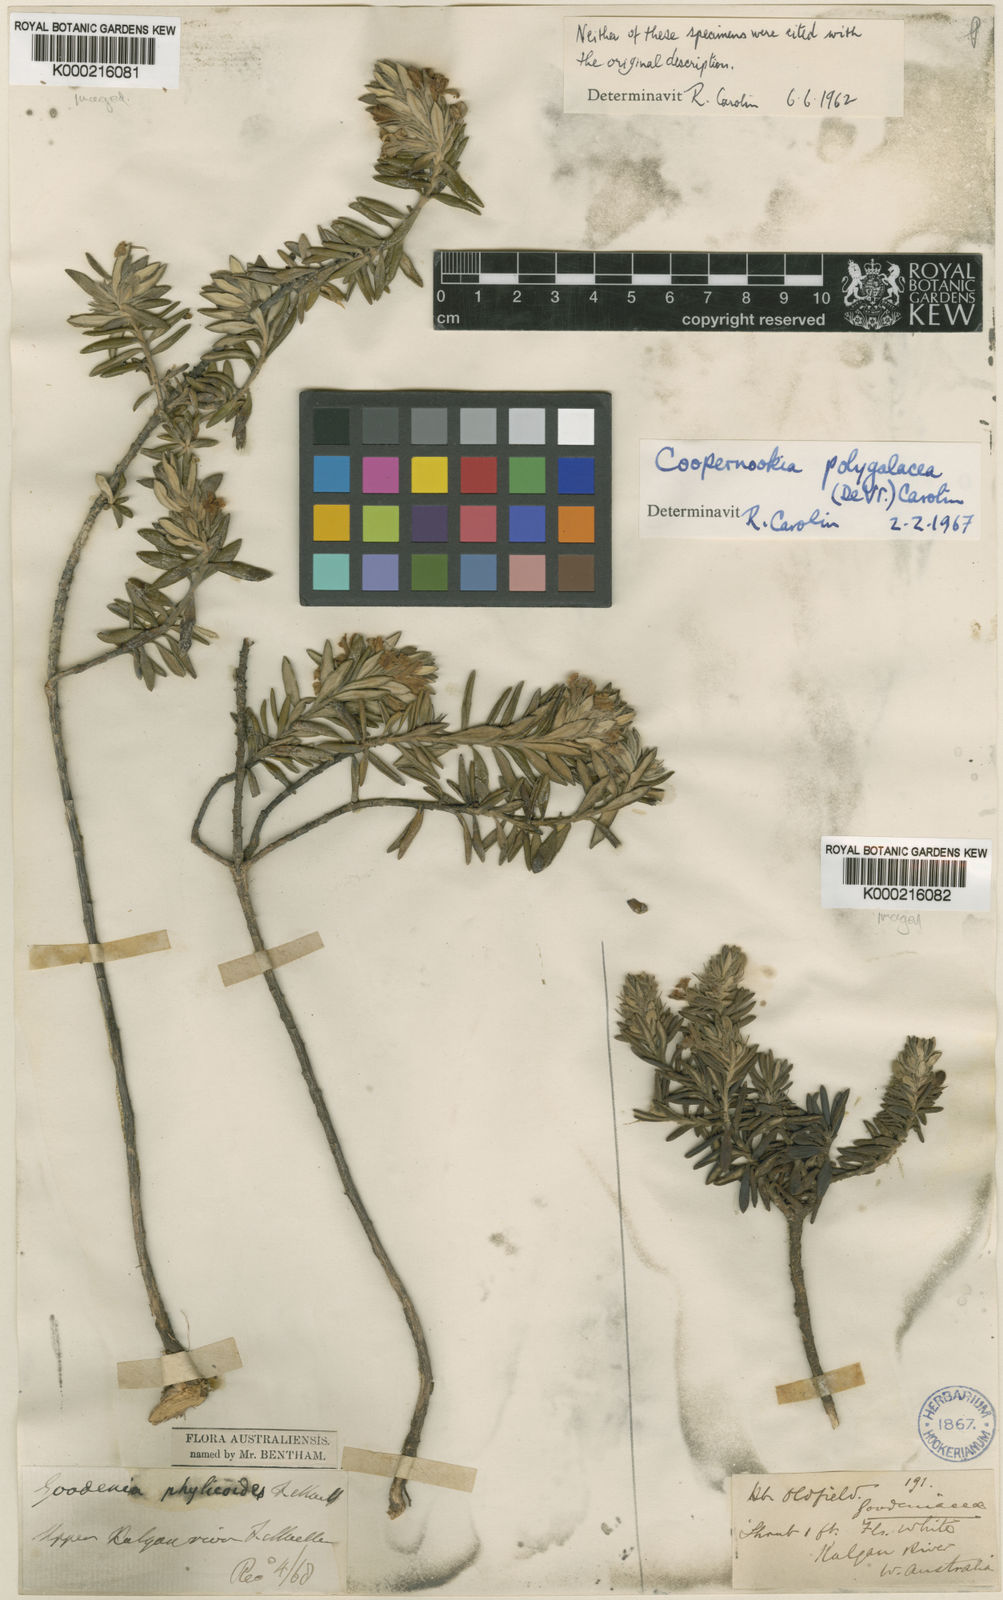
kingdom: Plantae
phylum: Tracheophyta
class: Magnoliopsida
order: Asterales
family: Goodeniaceae
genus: Goodenia
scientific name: Goodenia phylicoides
